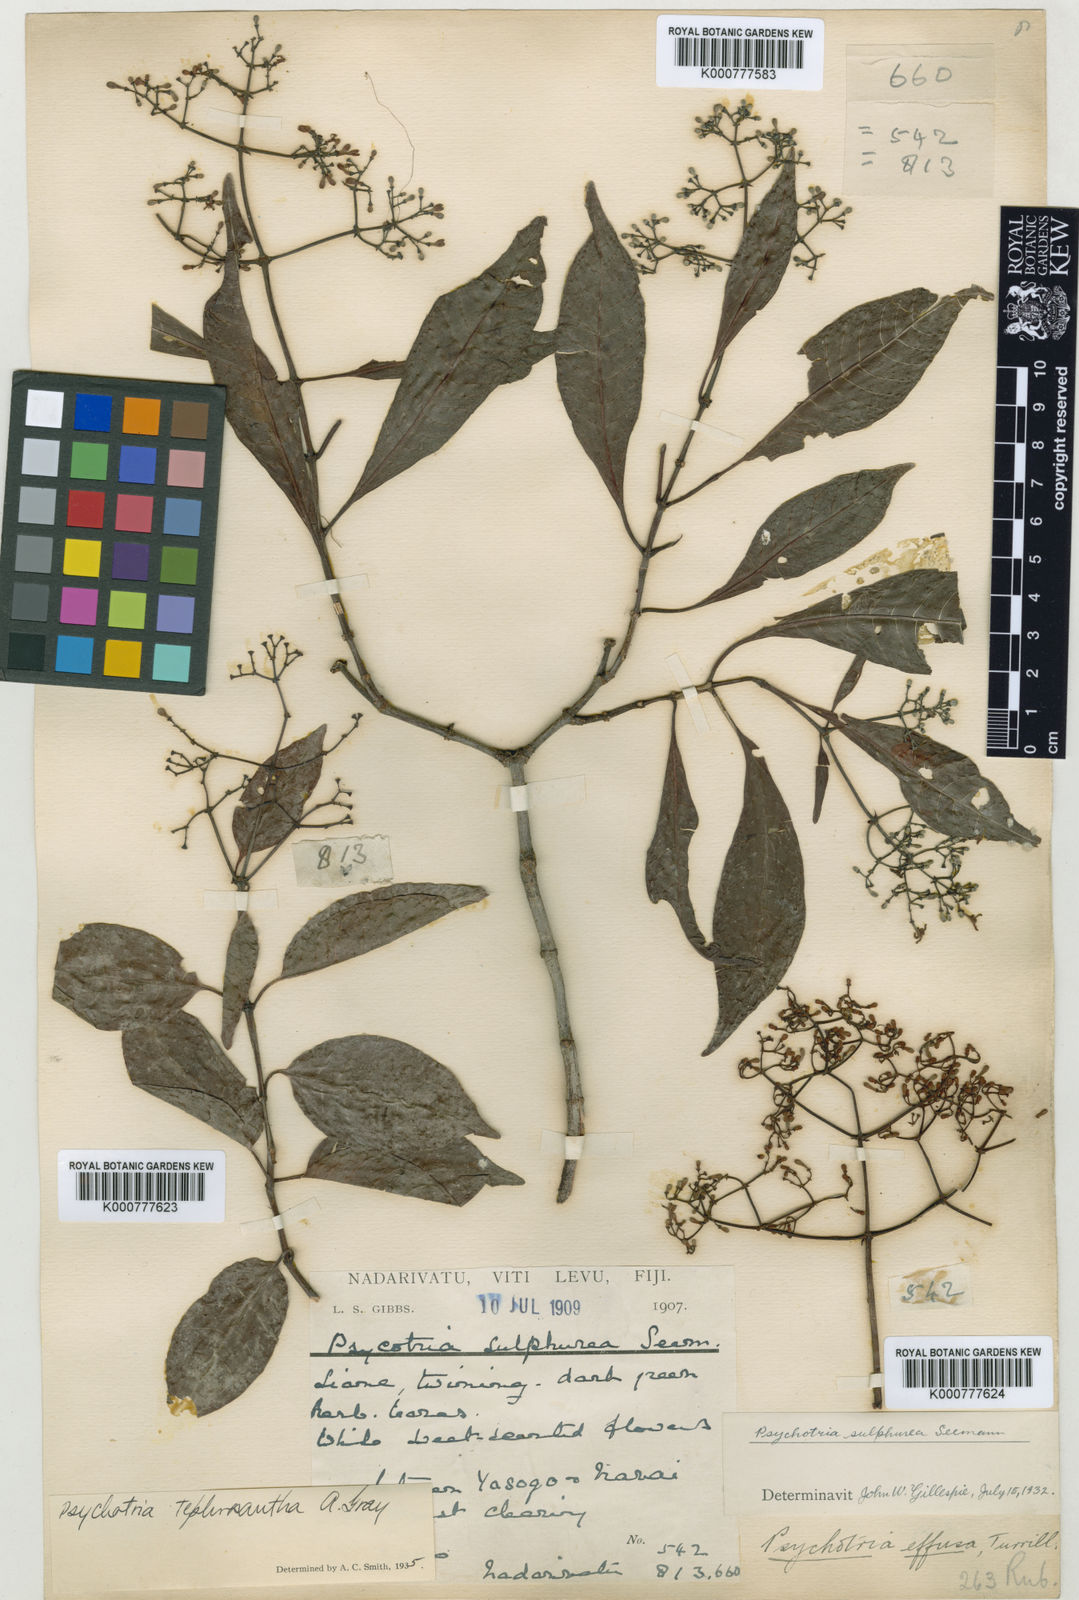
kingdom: Plantae
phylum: Tracheophyta
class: Magnoliopsida
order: Gentianales
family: Rubiaceae
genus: Psychotria
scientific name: Psychotria tephrosantha
